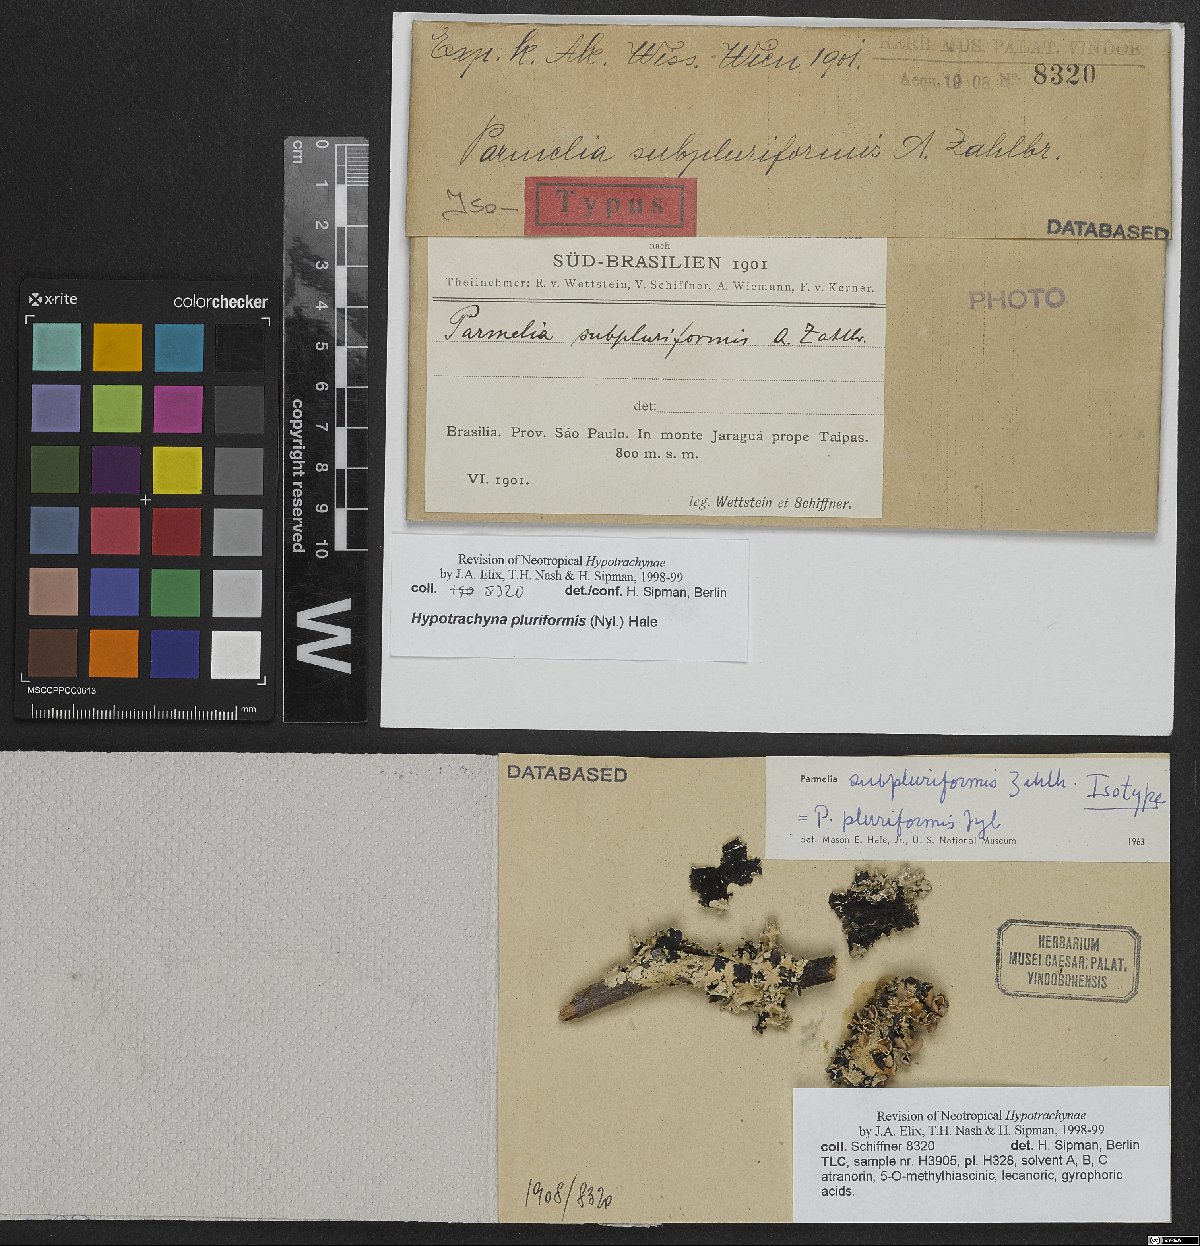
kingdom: Fungi
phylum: Ascomycota
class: Lecanoromycetes
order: Lecanorales
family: Parmeliaceae
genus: Parmelia
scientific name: Parmelia
